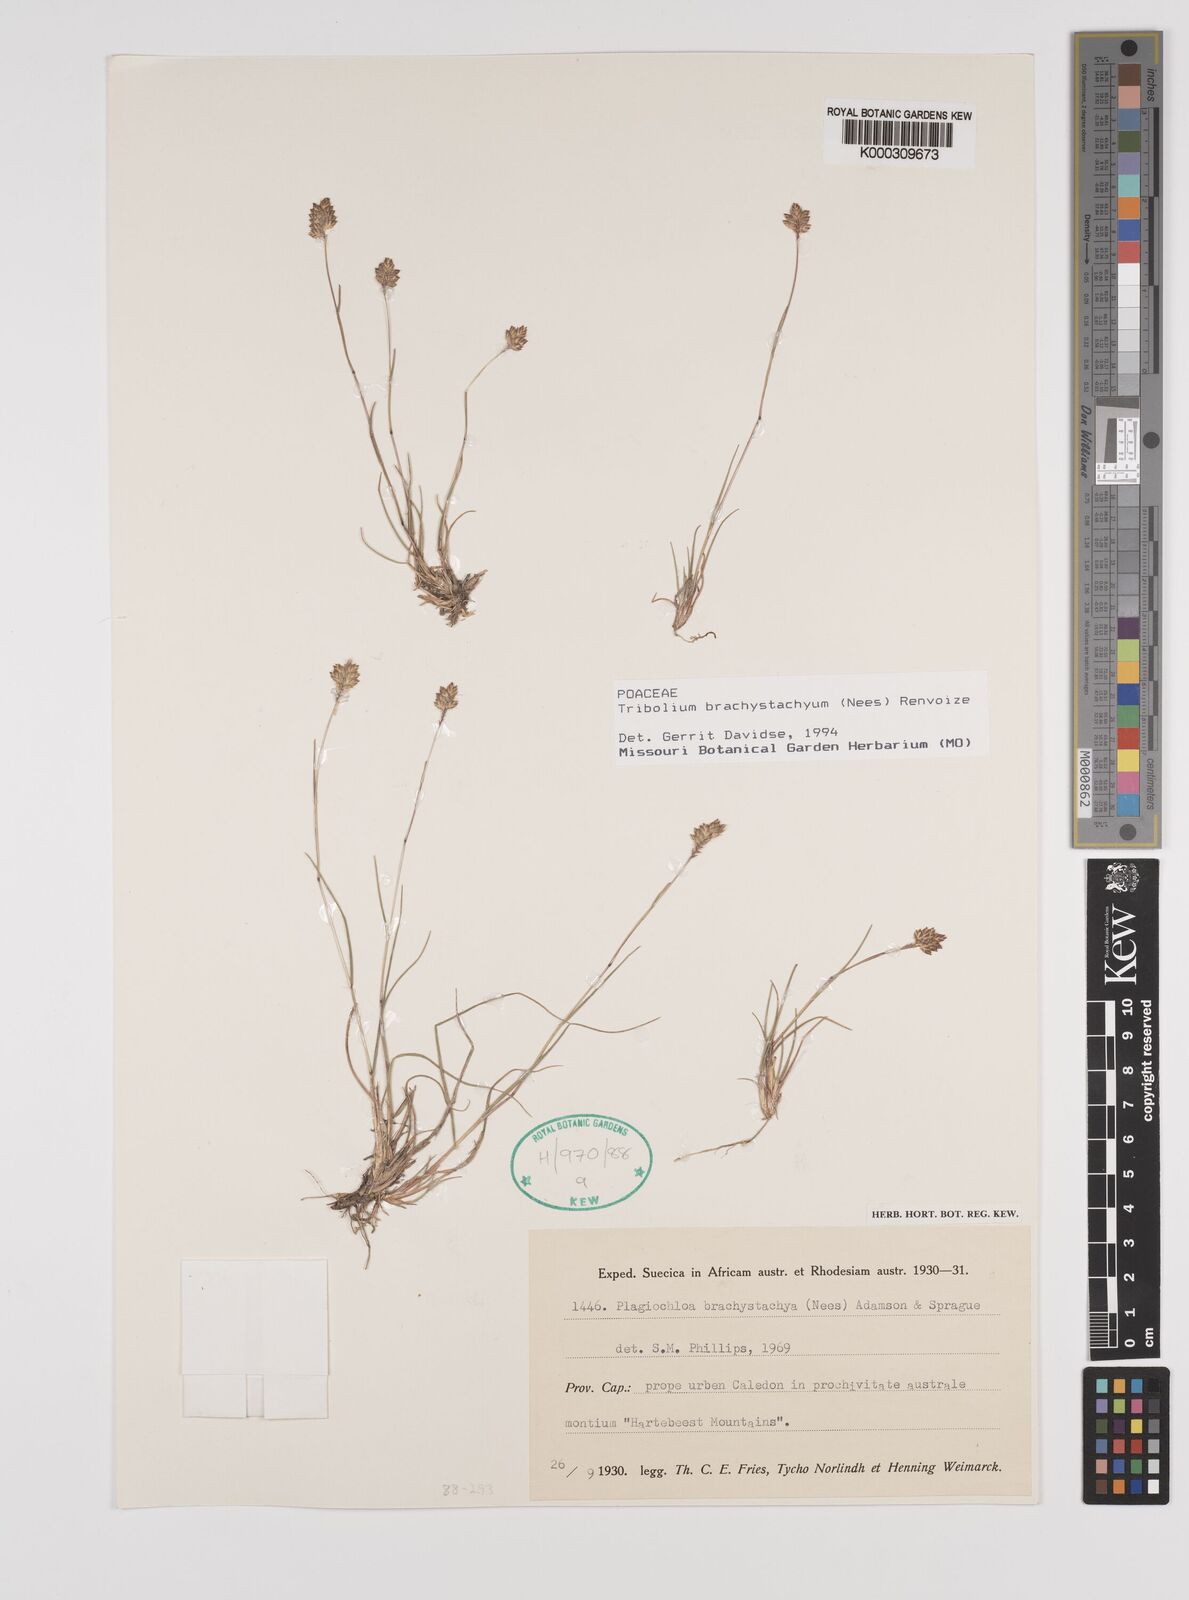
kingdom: Plantae
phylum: Tracheophyta
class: Liliopsida
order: Poales
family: Poaceae
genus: Tribolium
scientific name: Tribolium brachystachyum
